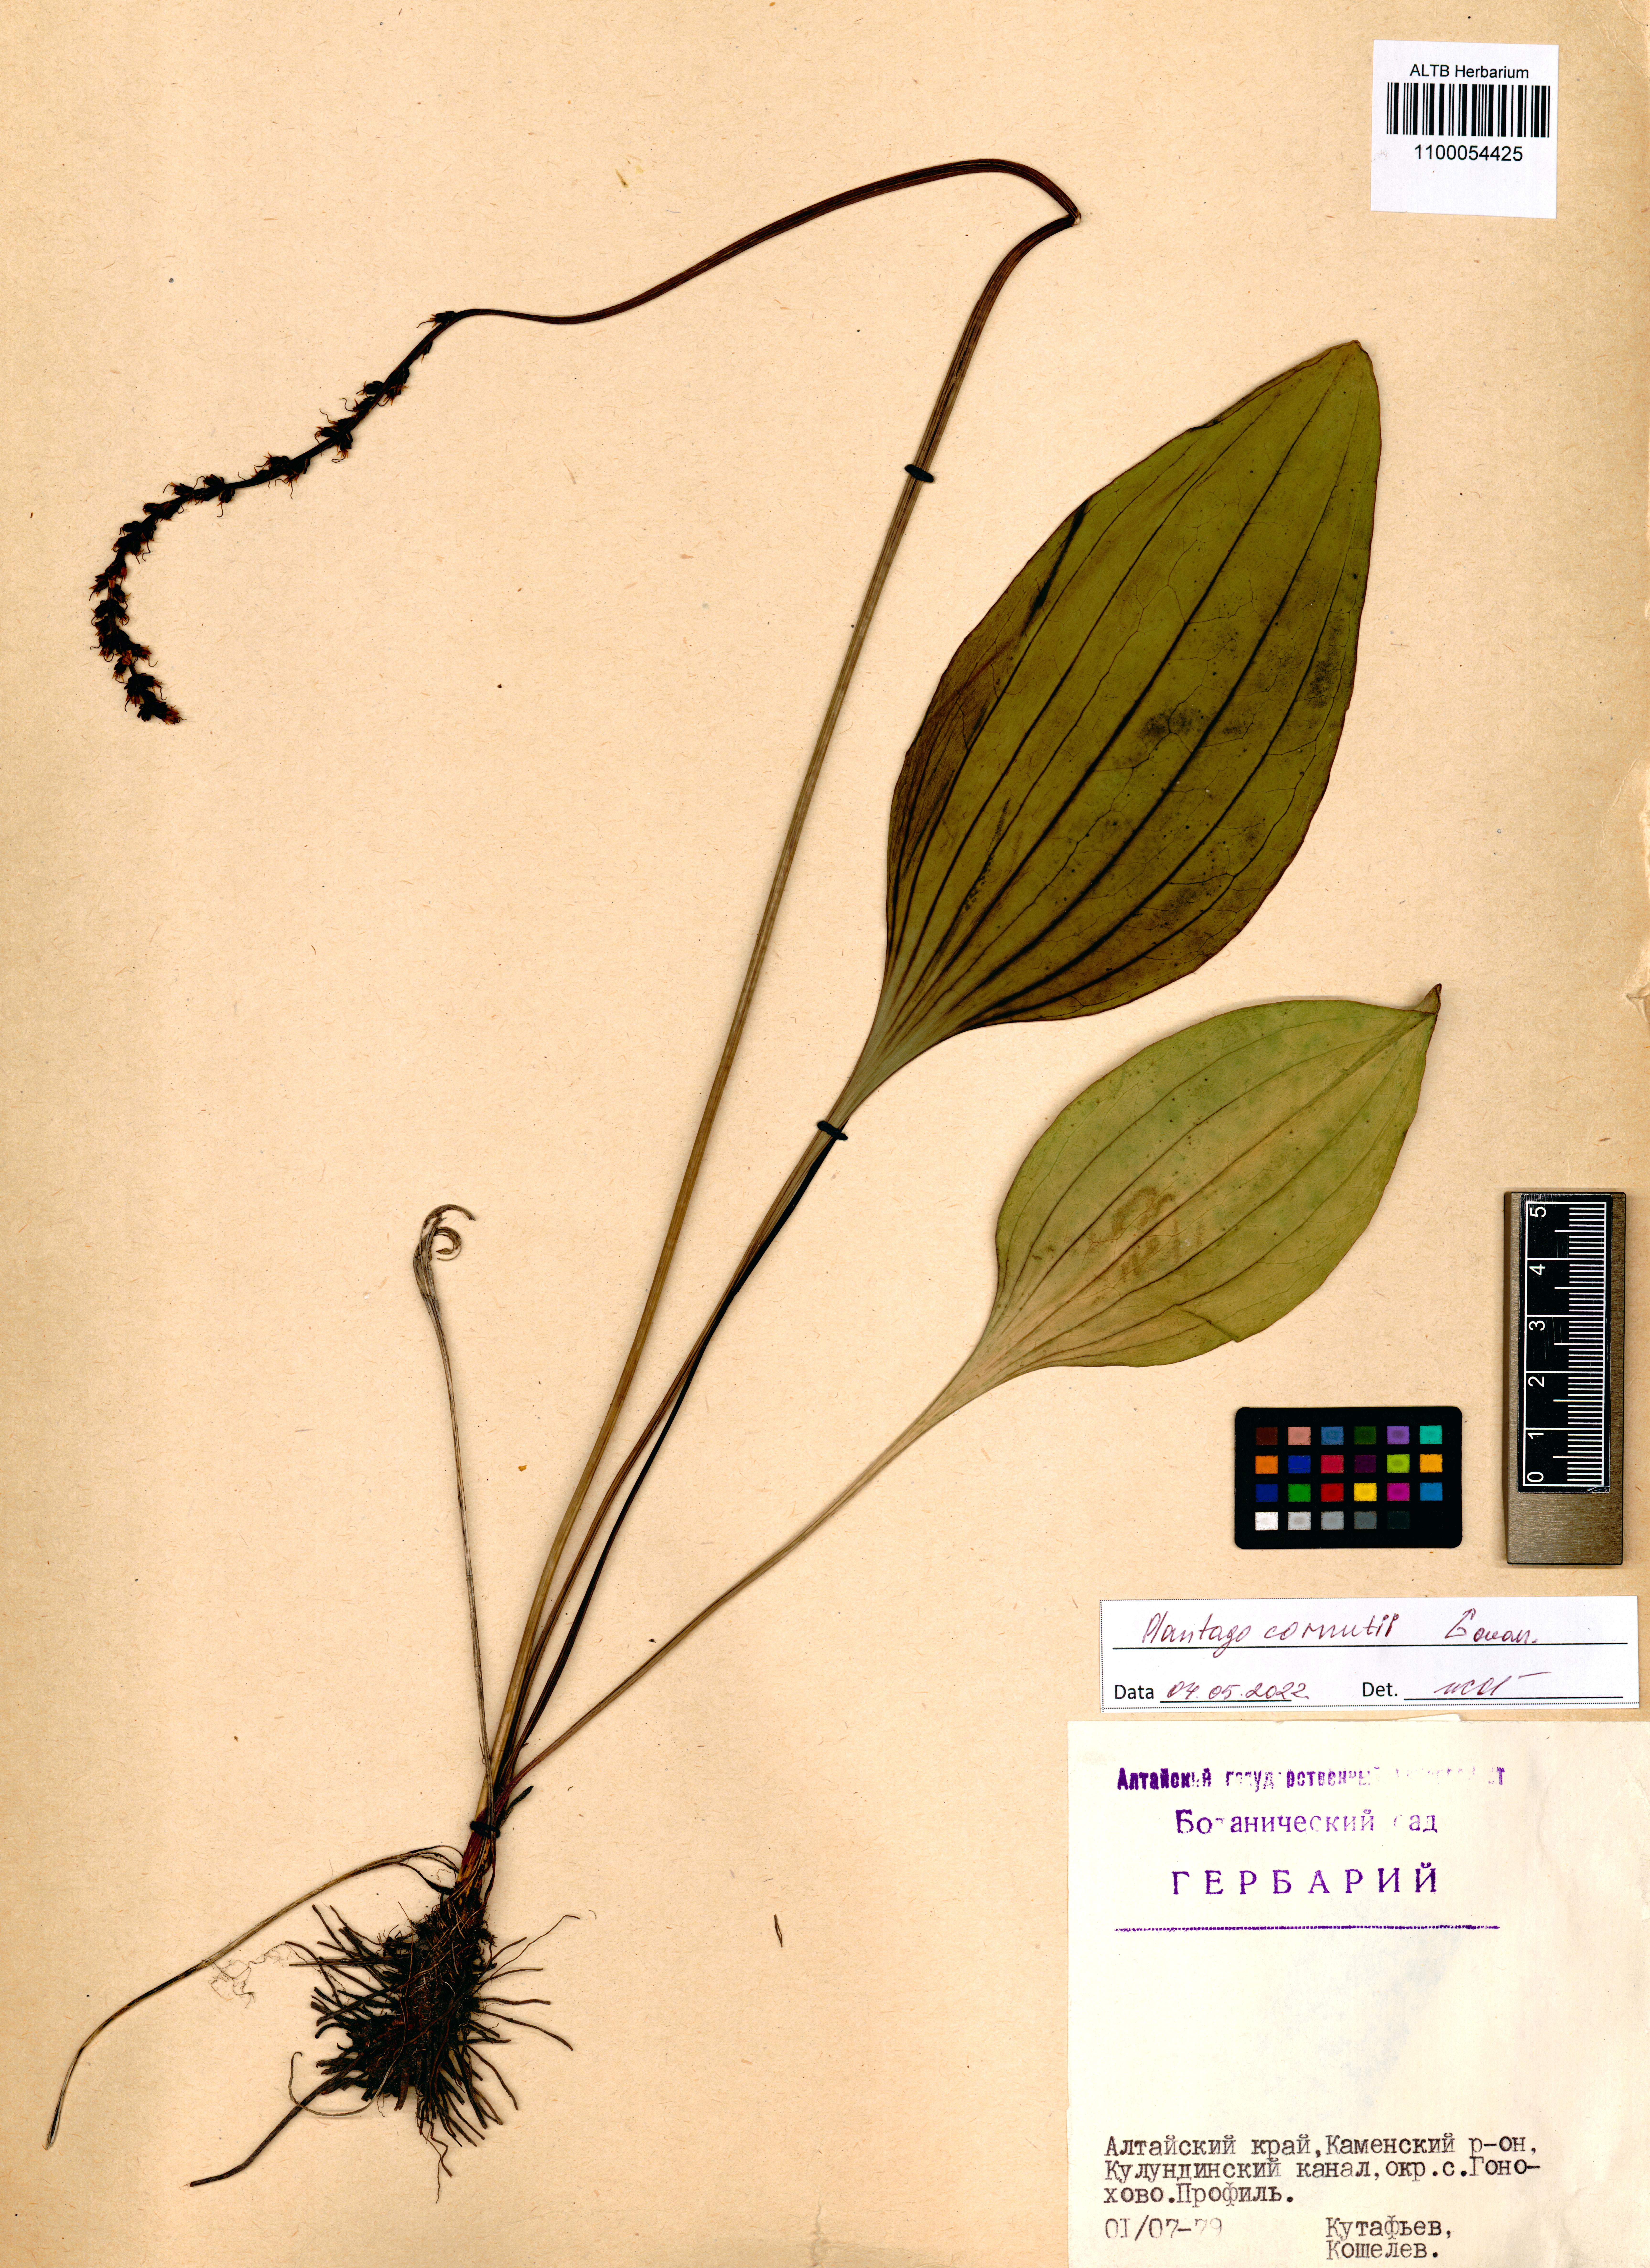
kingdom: Plantae
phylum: Tracheophyta
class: Magnoliopsida
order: Lamiales
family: Plantaginaceae
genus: Plantago
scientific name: Plantago cornuti
